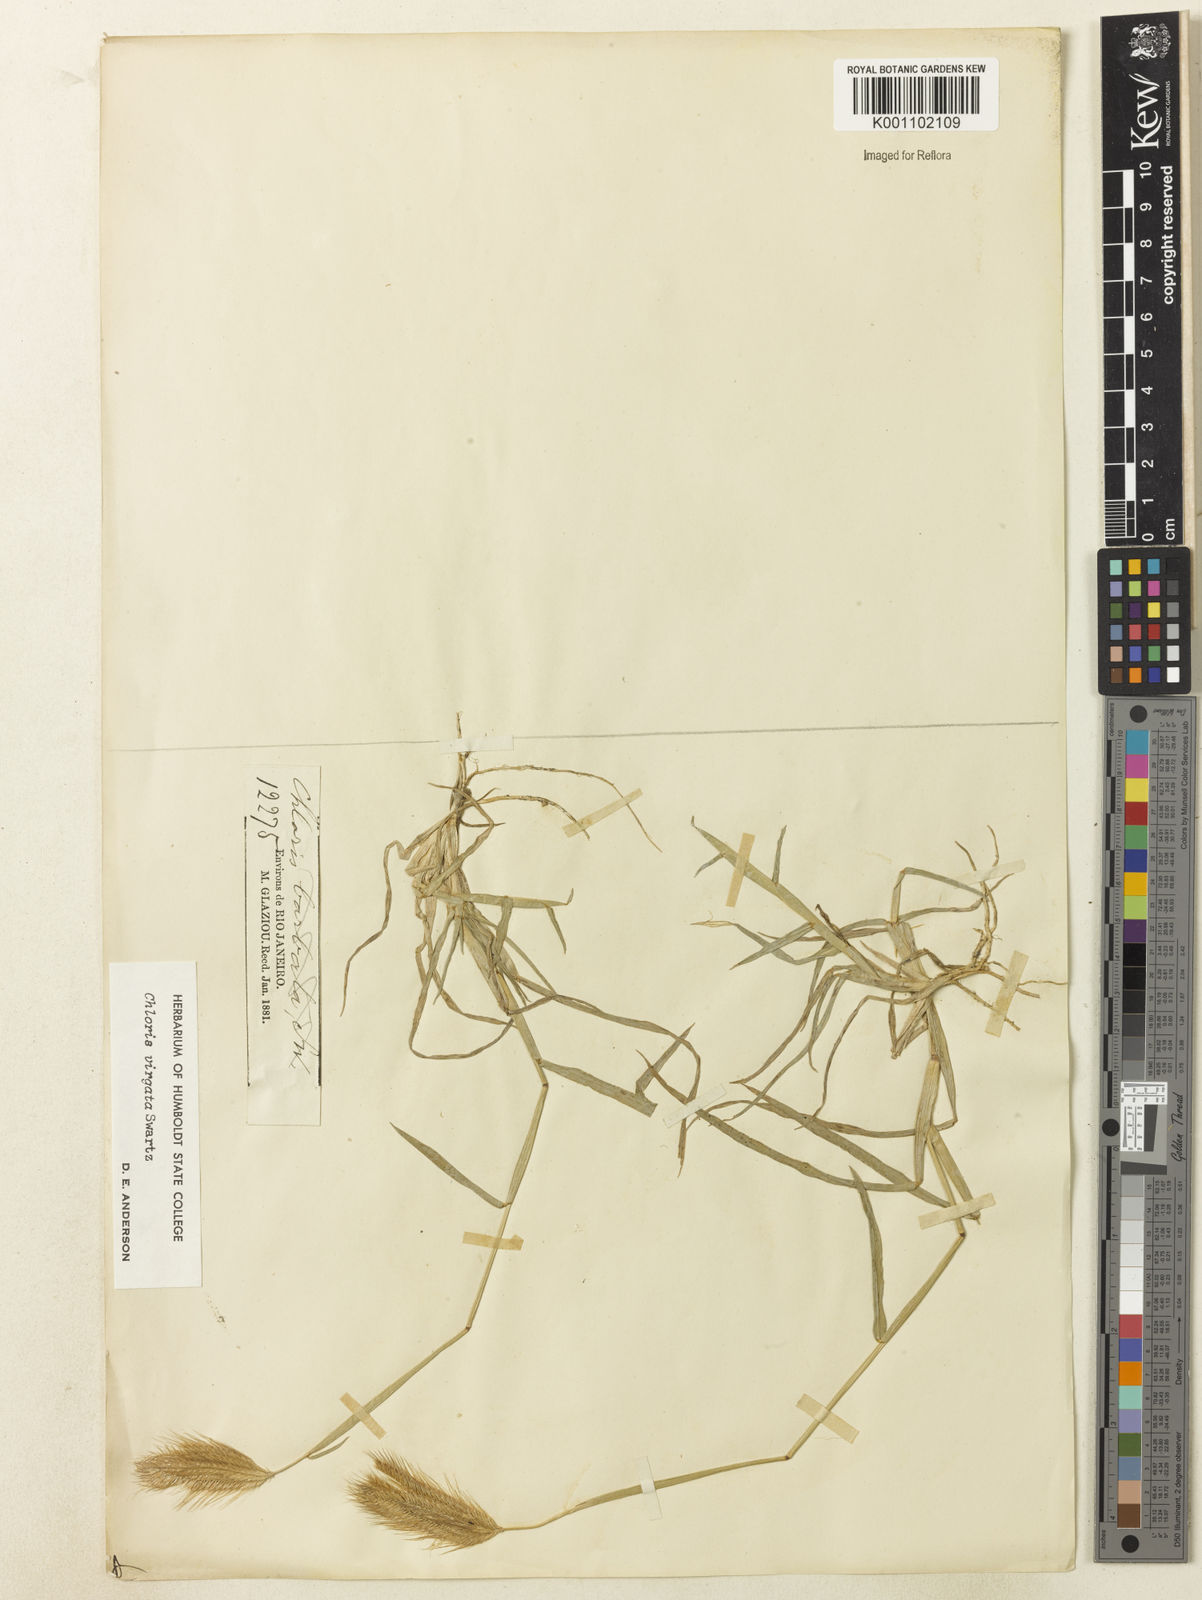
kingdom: Plantae
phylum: Tracheophyta
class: Liliopsida
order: Poales
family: Poaceae
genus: Chloris
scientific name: Chloris virgata
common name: Feathery rhodes-grass
